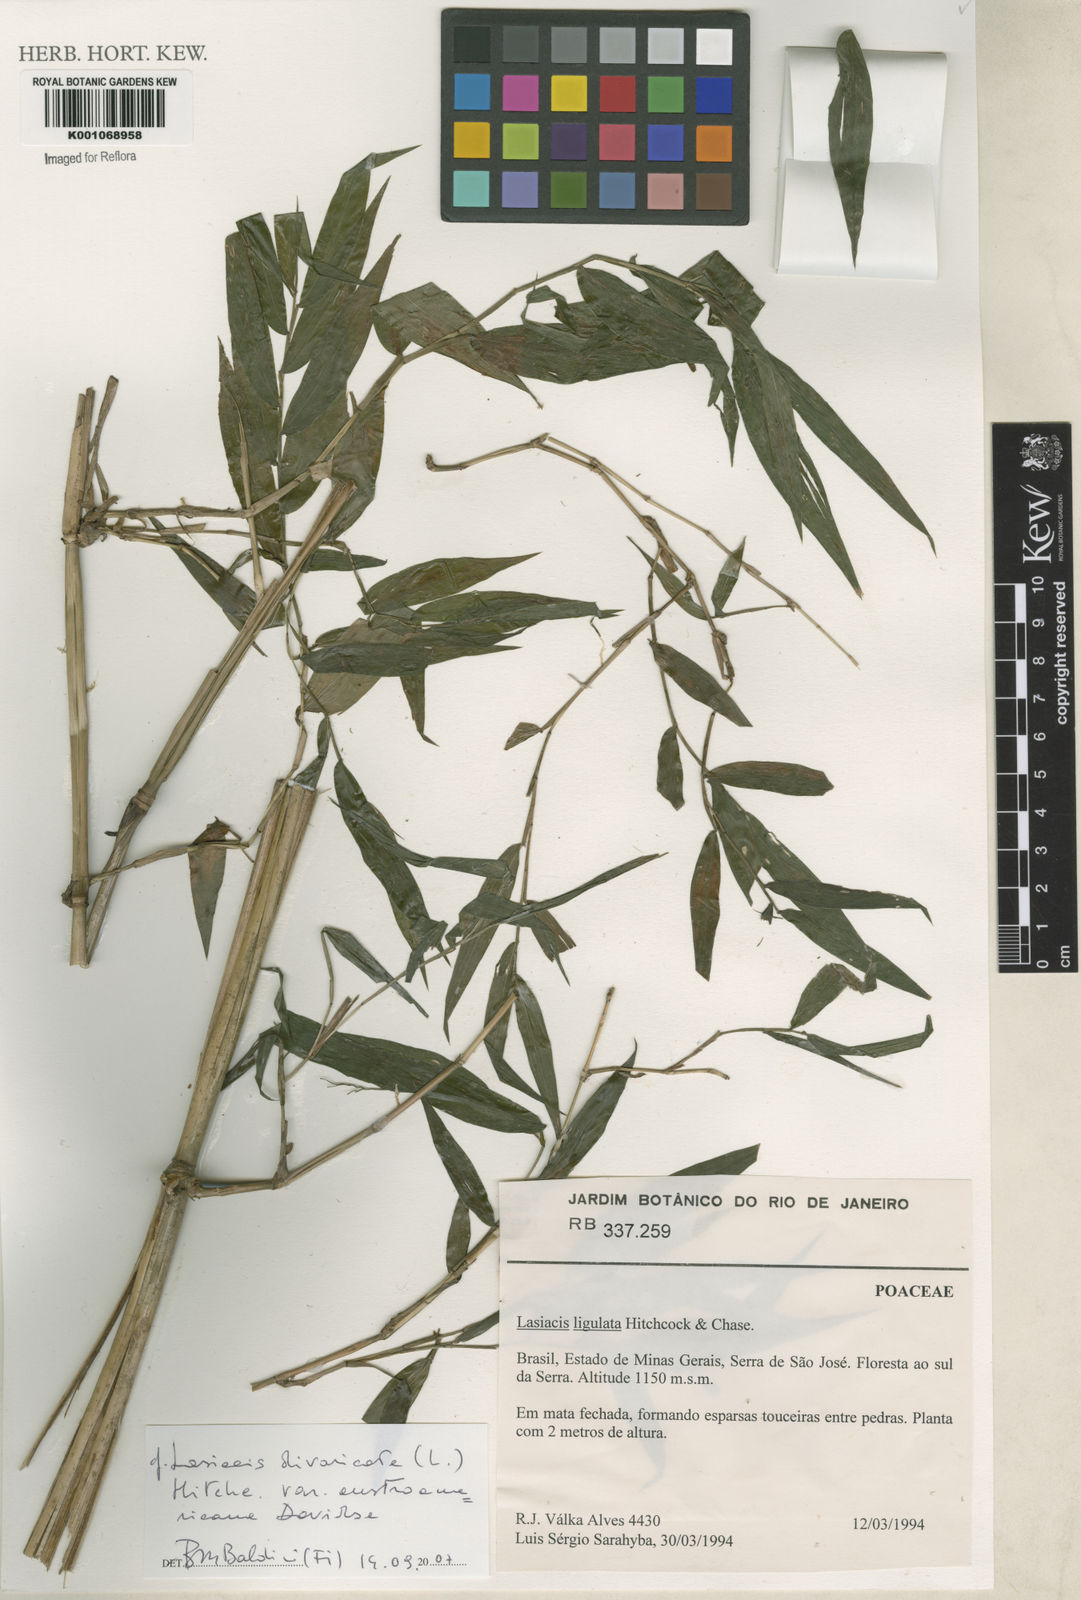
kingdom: Plantae
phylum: Tracheophyta
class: Liliopsida
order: Poales
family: Poaceae
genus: Lasiacis
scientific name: Lasiacis divaricata
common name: Smallcane
